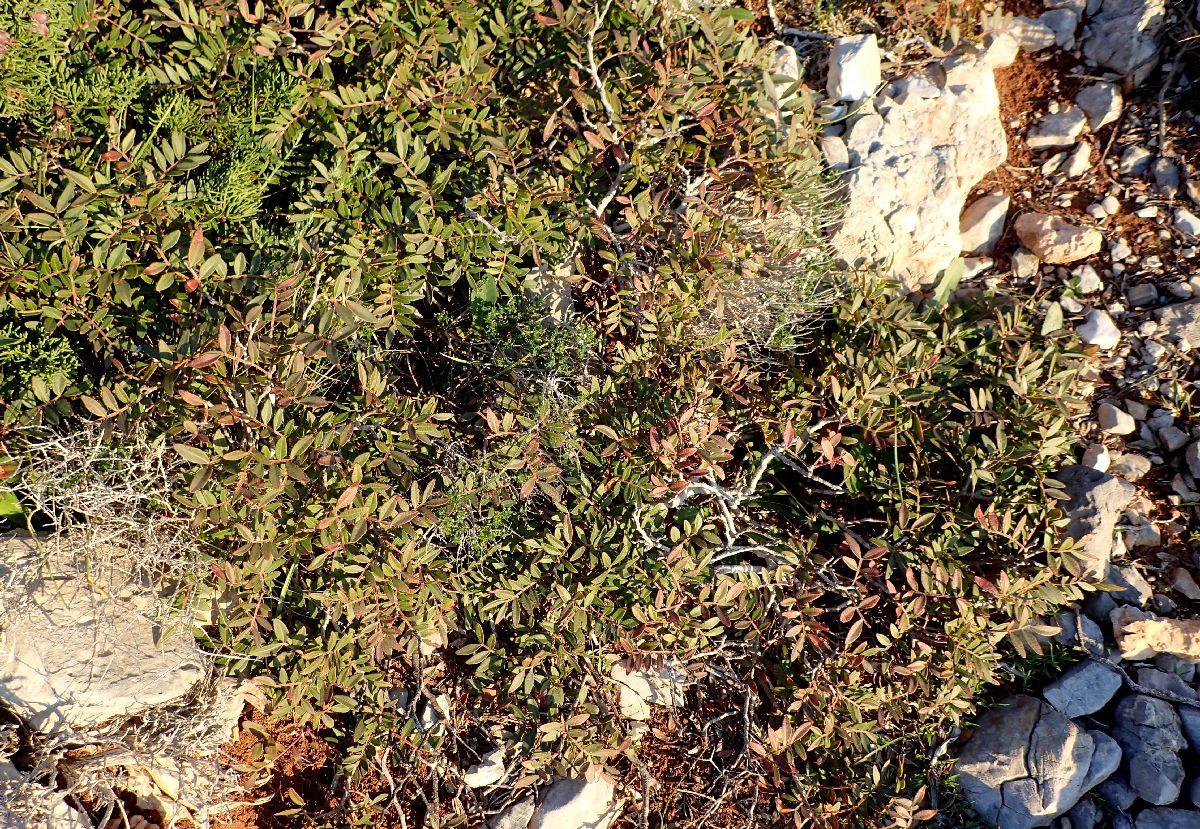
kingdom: Plantae
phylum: Tracheophyta
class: Magnoliopsida
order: Sapindales
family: Anacardiaceae
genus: Pistacia
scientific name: Pistacia lentiscus
